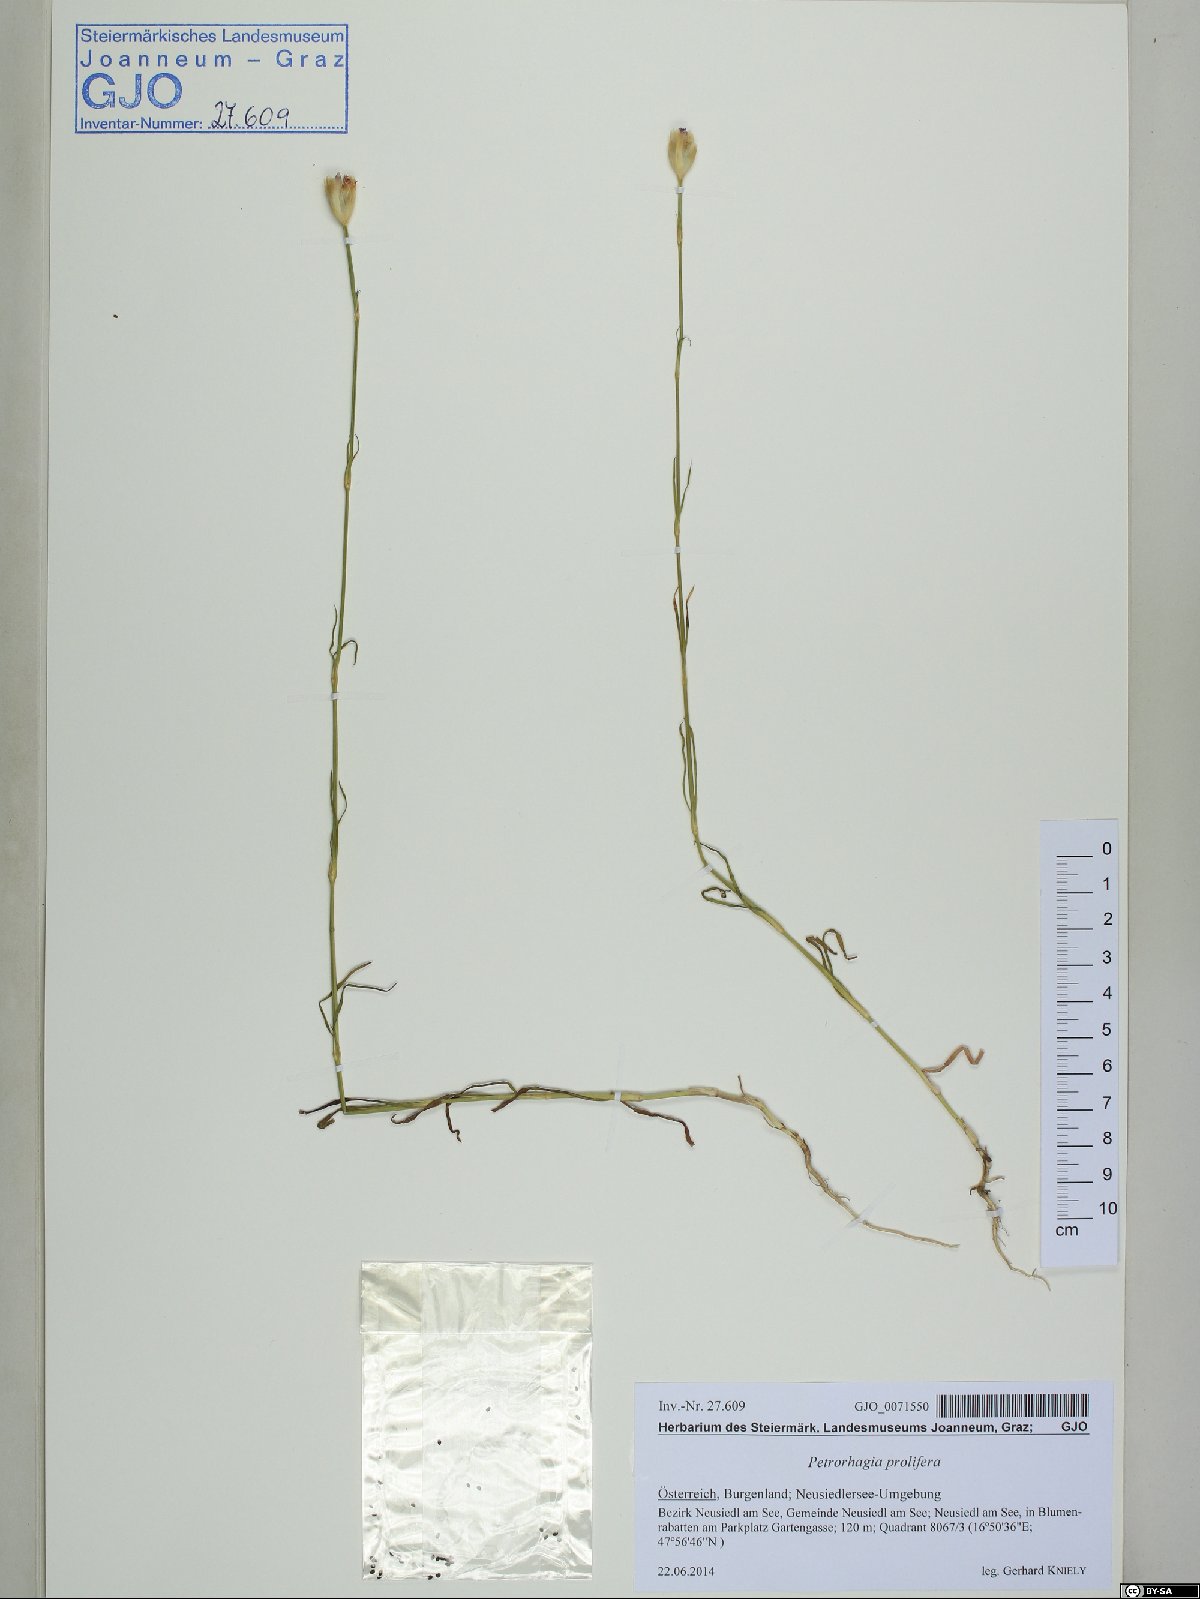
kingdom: Plantae
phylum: Tracheophyta
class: Magnoliopsida
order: Caryophyllales
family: Caryophyllaceae
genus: Petrorhagia
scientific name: Petrorhagia prolifera
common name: Proliferous pink
